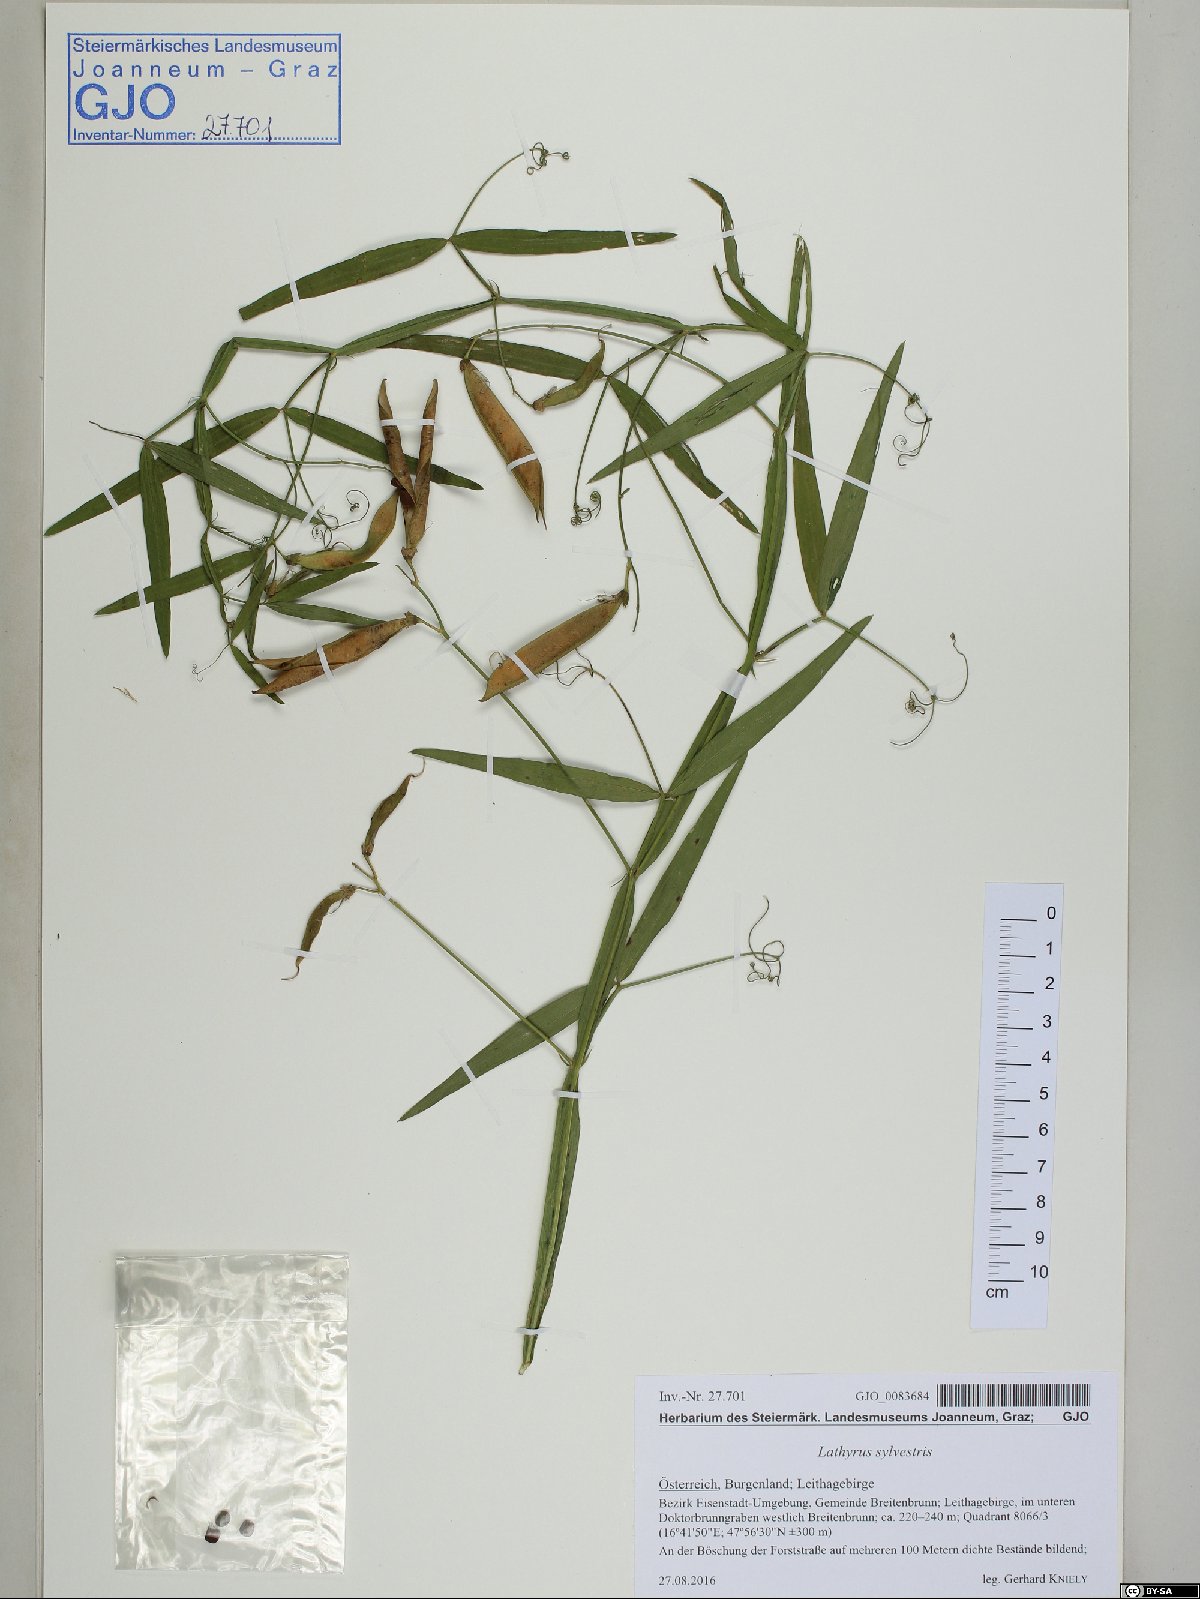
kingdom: Plantae
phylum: Tracheophyta
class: Magnoliopsida
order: Fabales
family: Fabaceae
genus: Lathyrus
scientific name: Lathyrus sylvestris
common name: Flat pea
